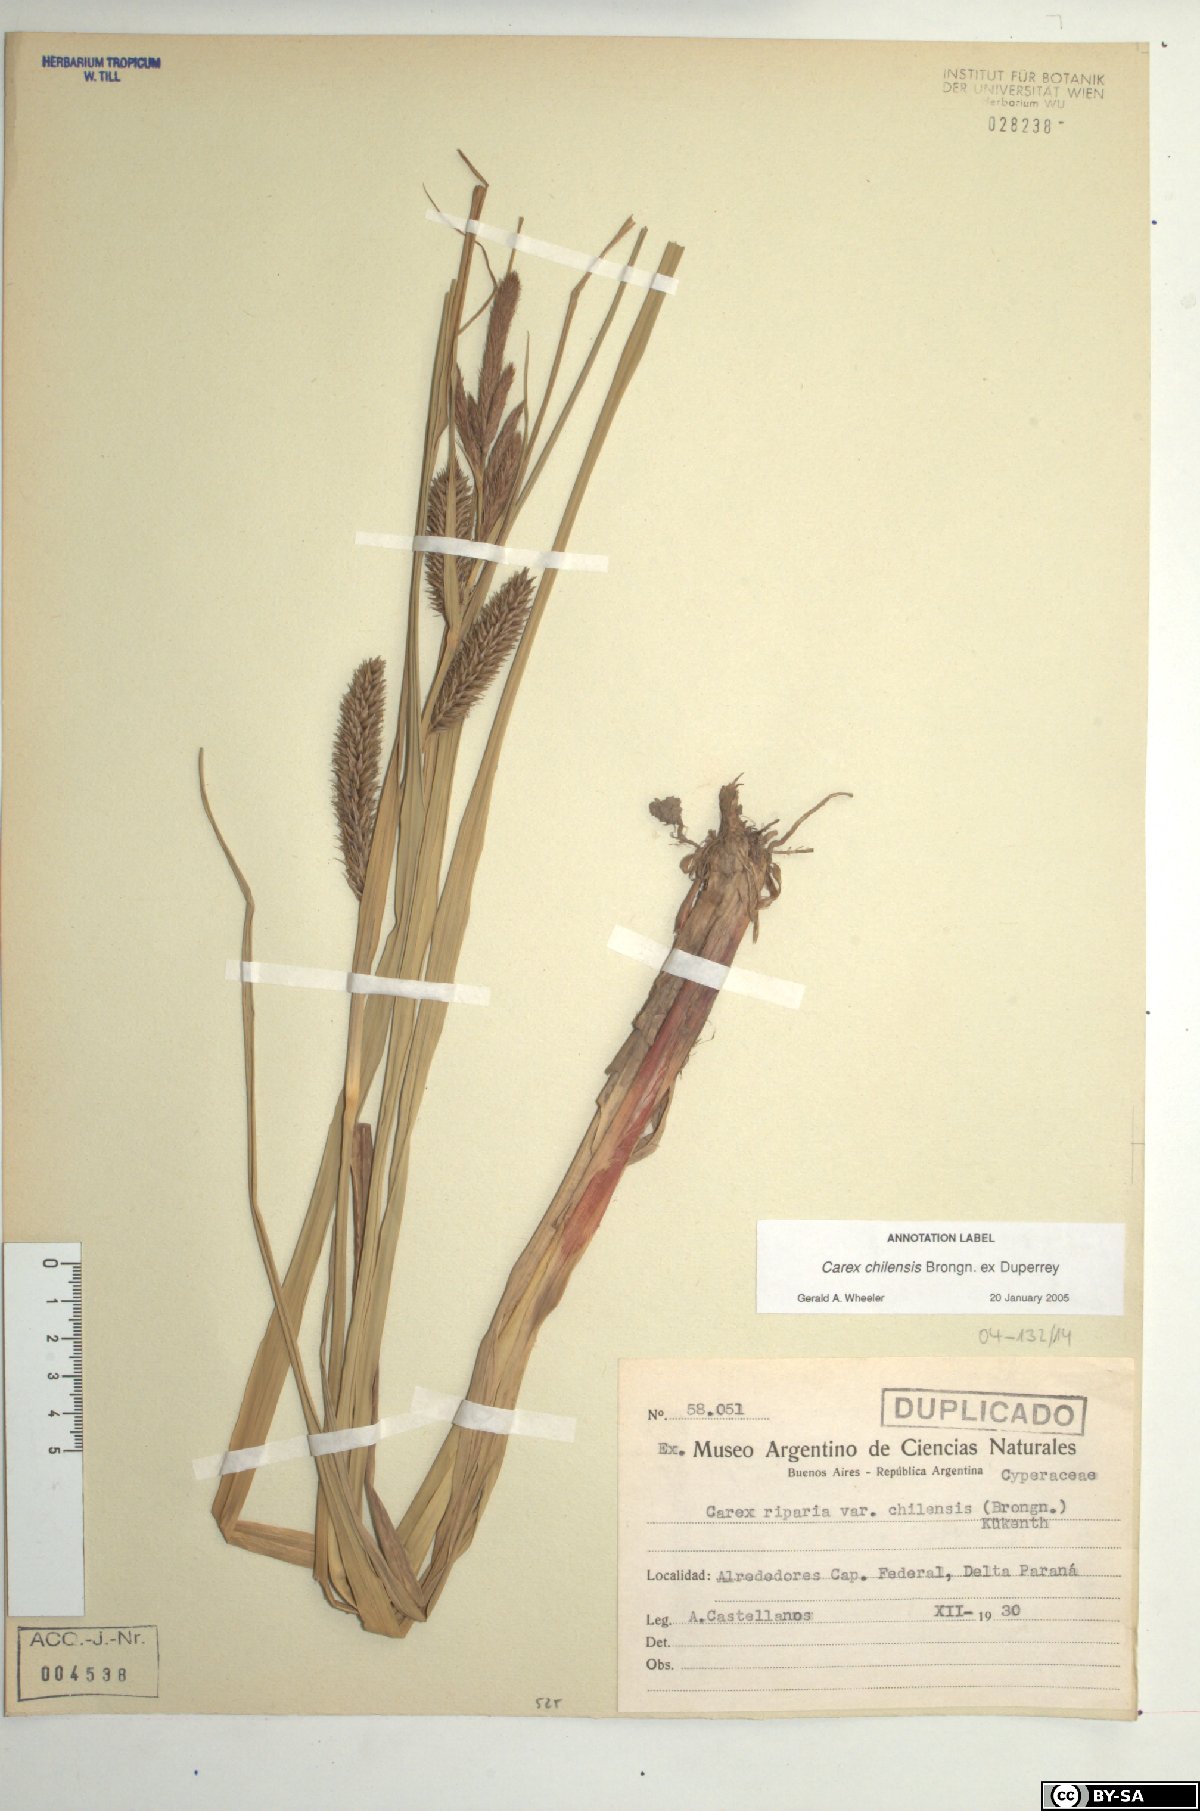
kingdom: Plantae
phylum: Tracheophyta
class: Liliopsida
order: Poales
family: Cyperaceae
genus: Carex
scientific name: Carex chilensis
